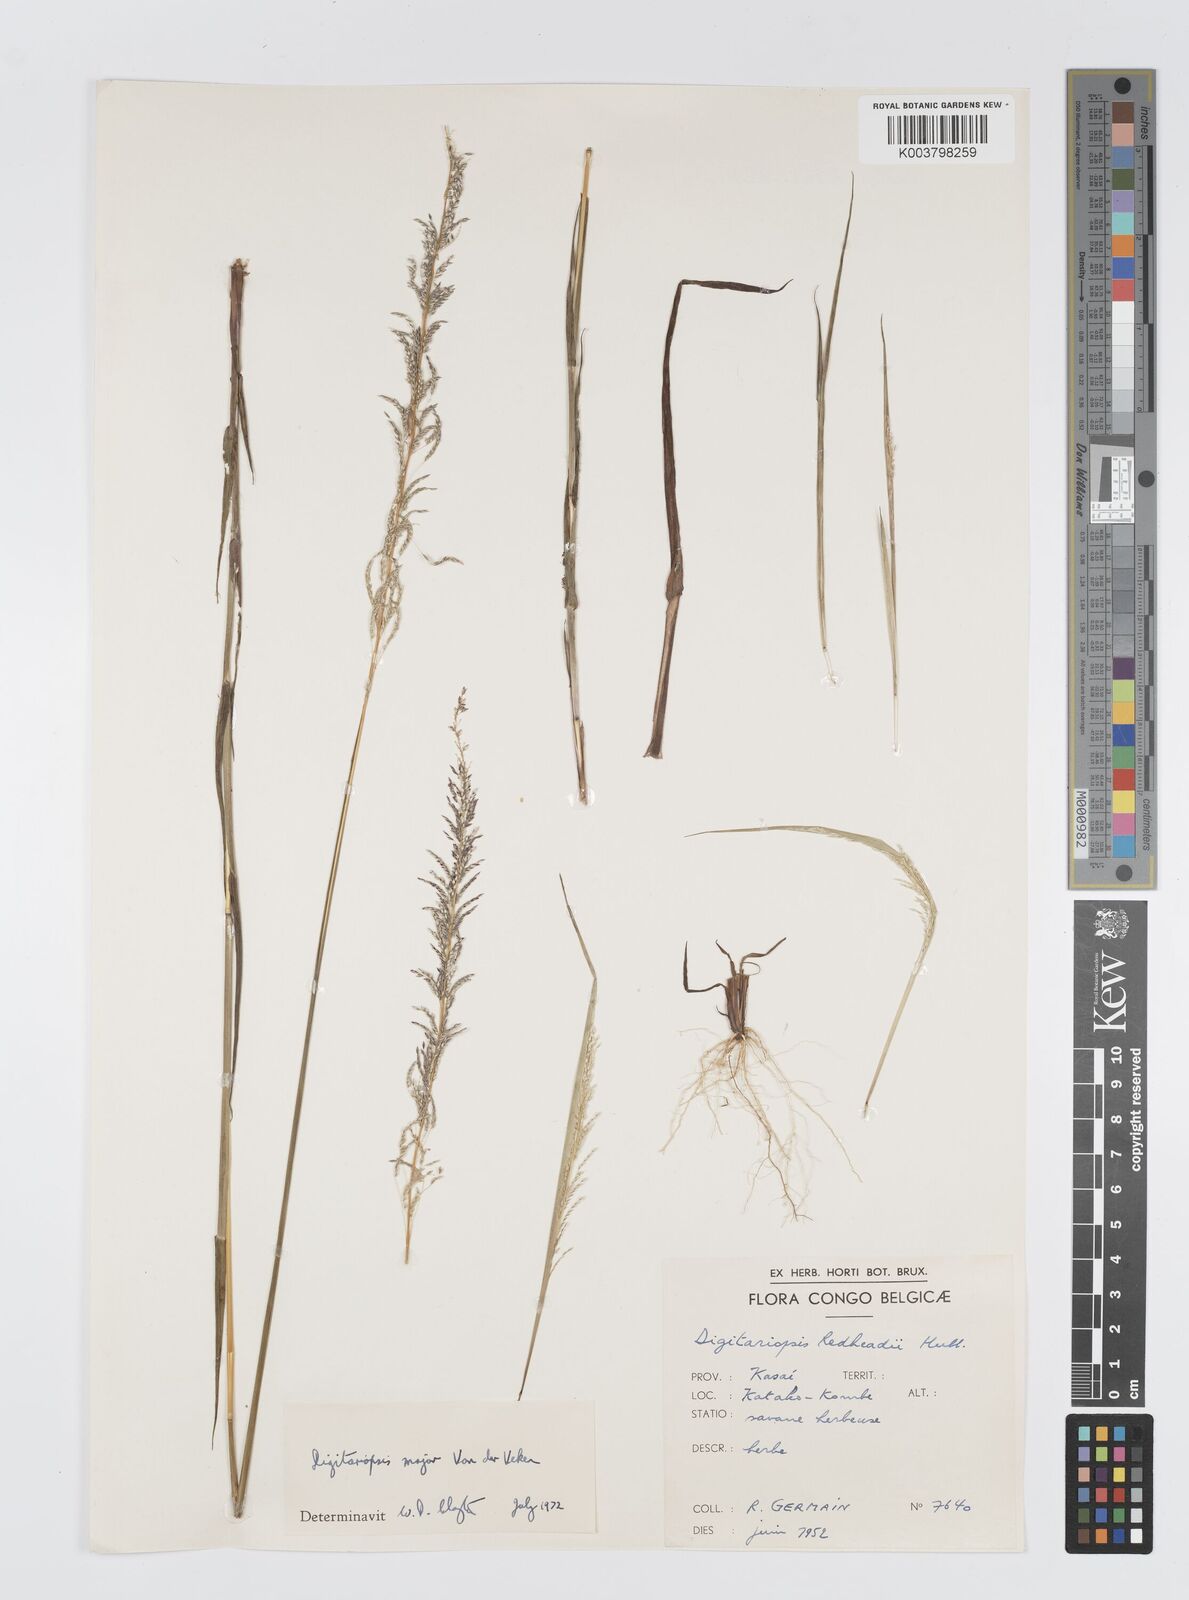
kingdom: Plantae
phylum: Tracheophyta
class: Liliopsida
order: Poales
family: Poaceae
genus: Digitaria
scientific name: Digitaria poggeana
